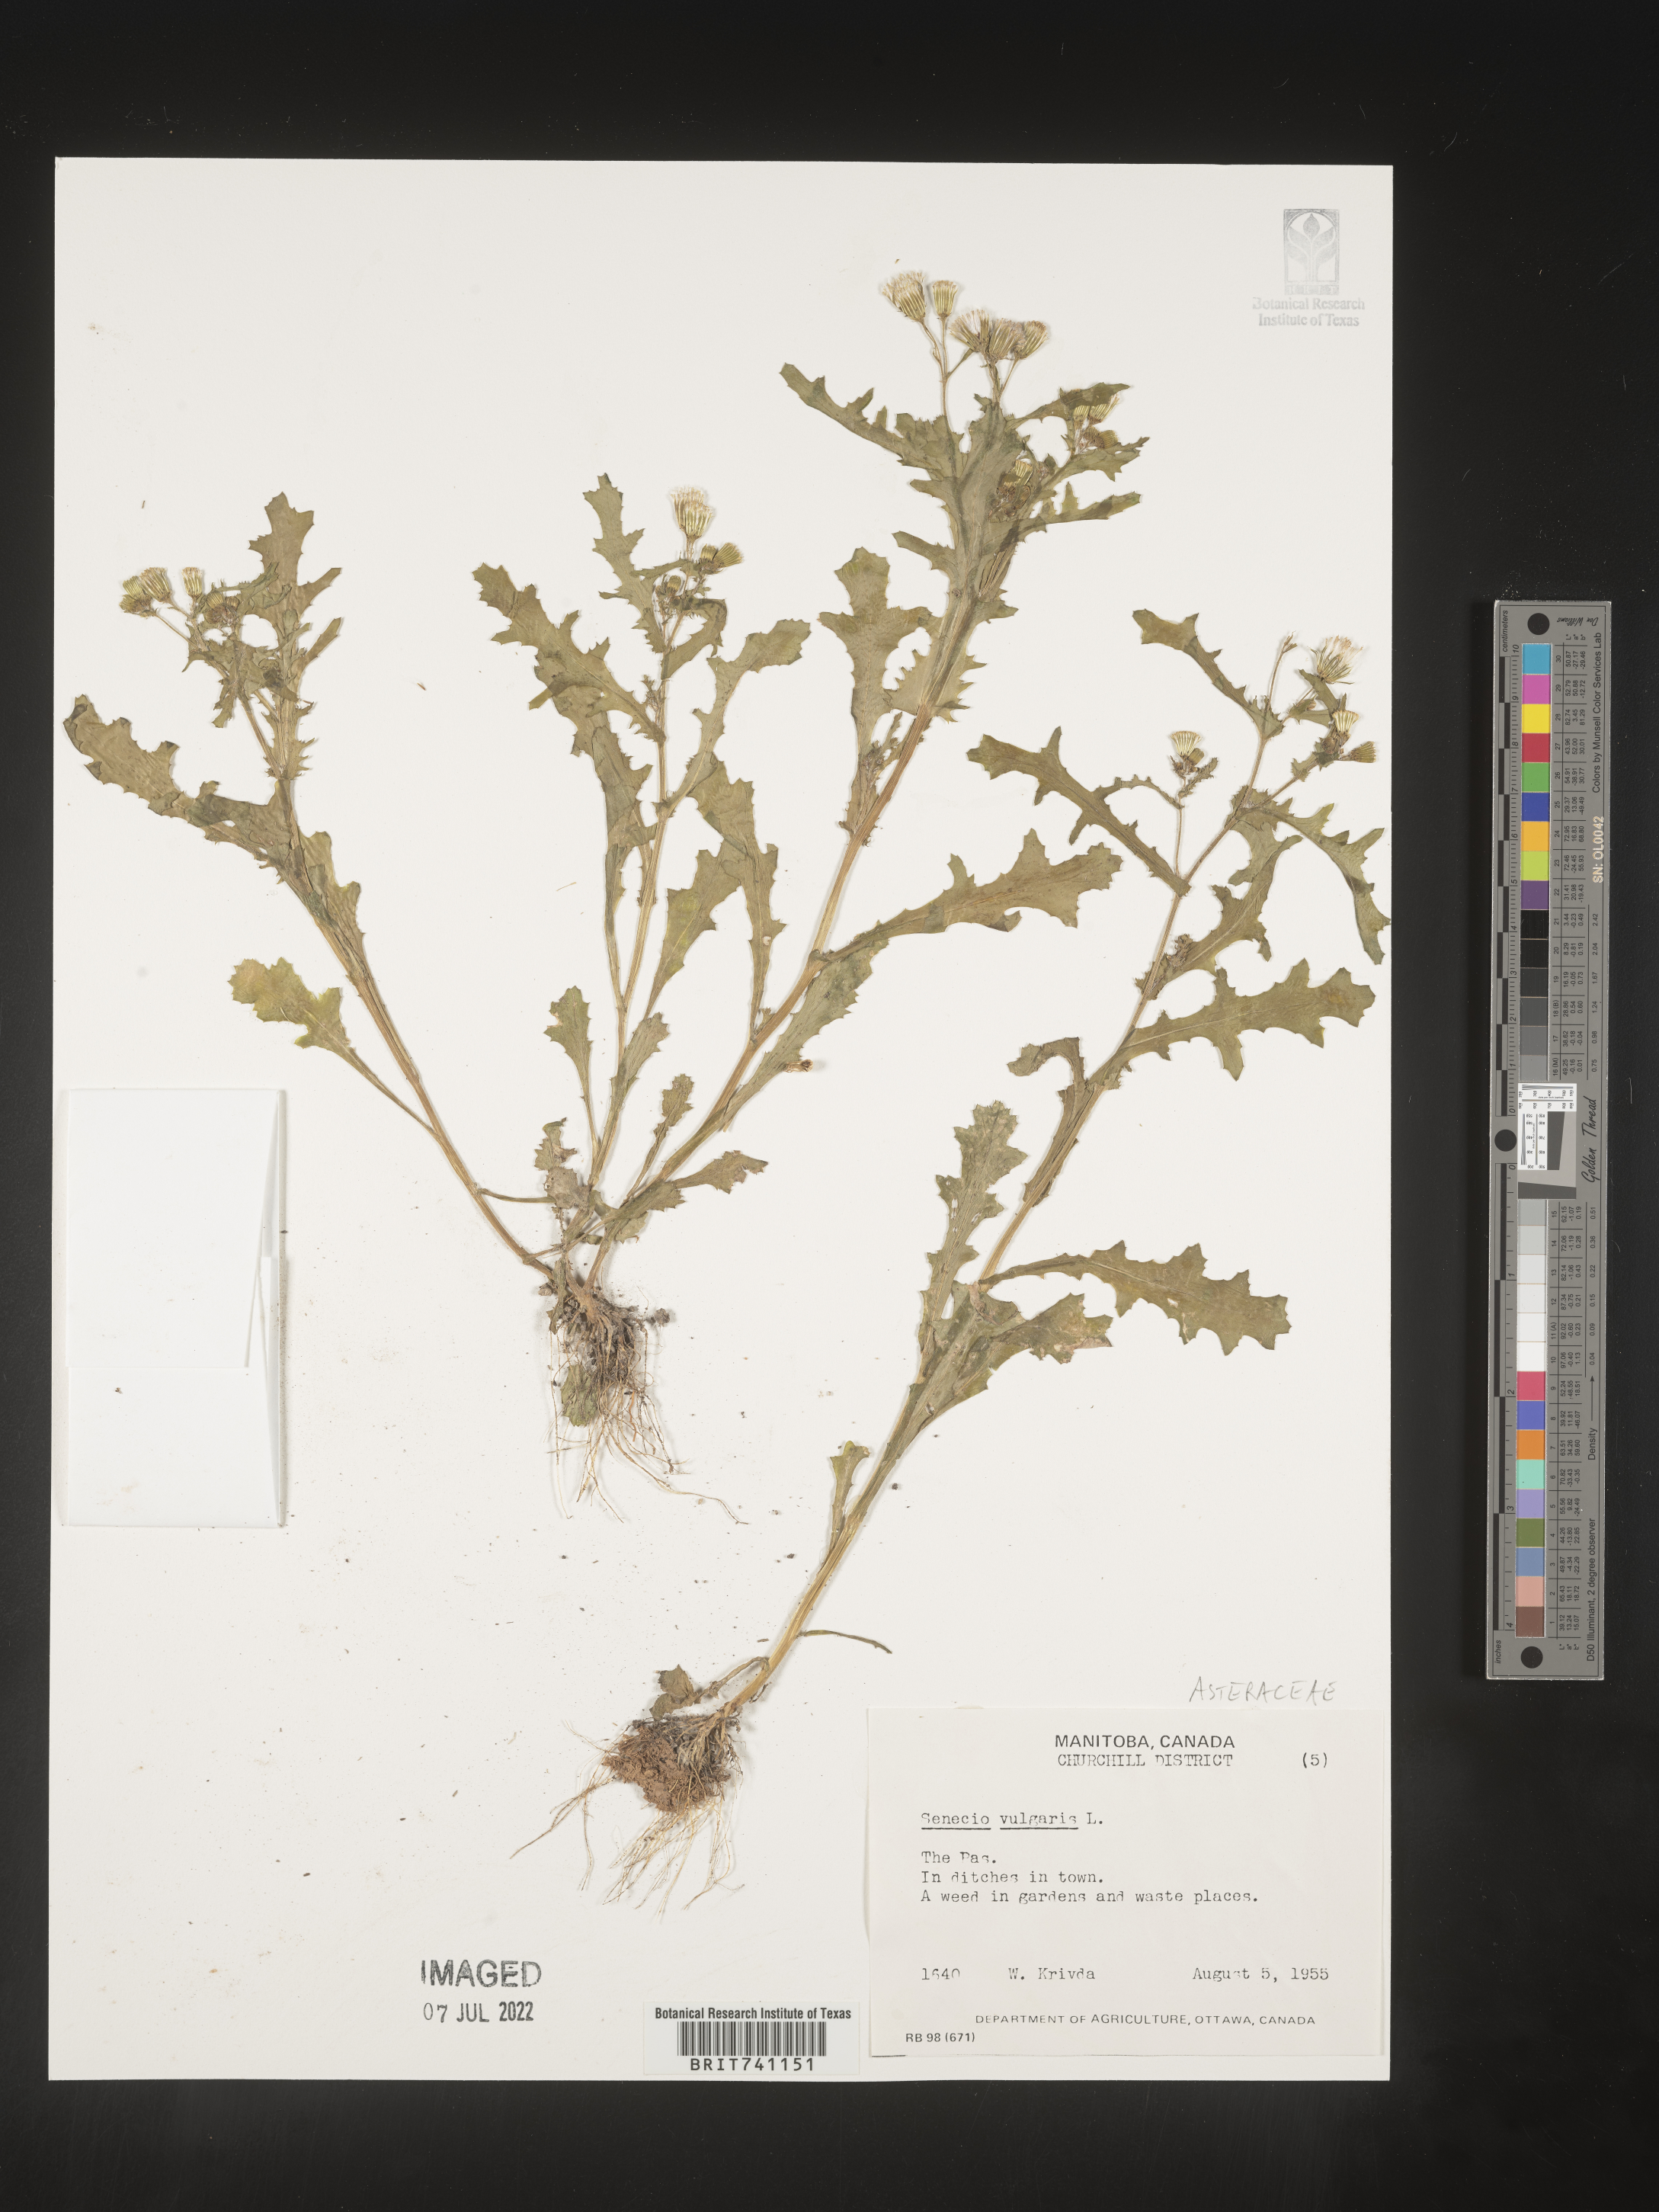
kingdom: Plantae
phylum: Tracheophyta
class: Magnoliopsida
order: Asterales
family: Asteraceae
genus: Senecio
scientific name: Senecio vulgaris
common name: Old-man-in-the-spring
